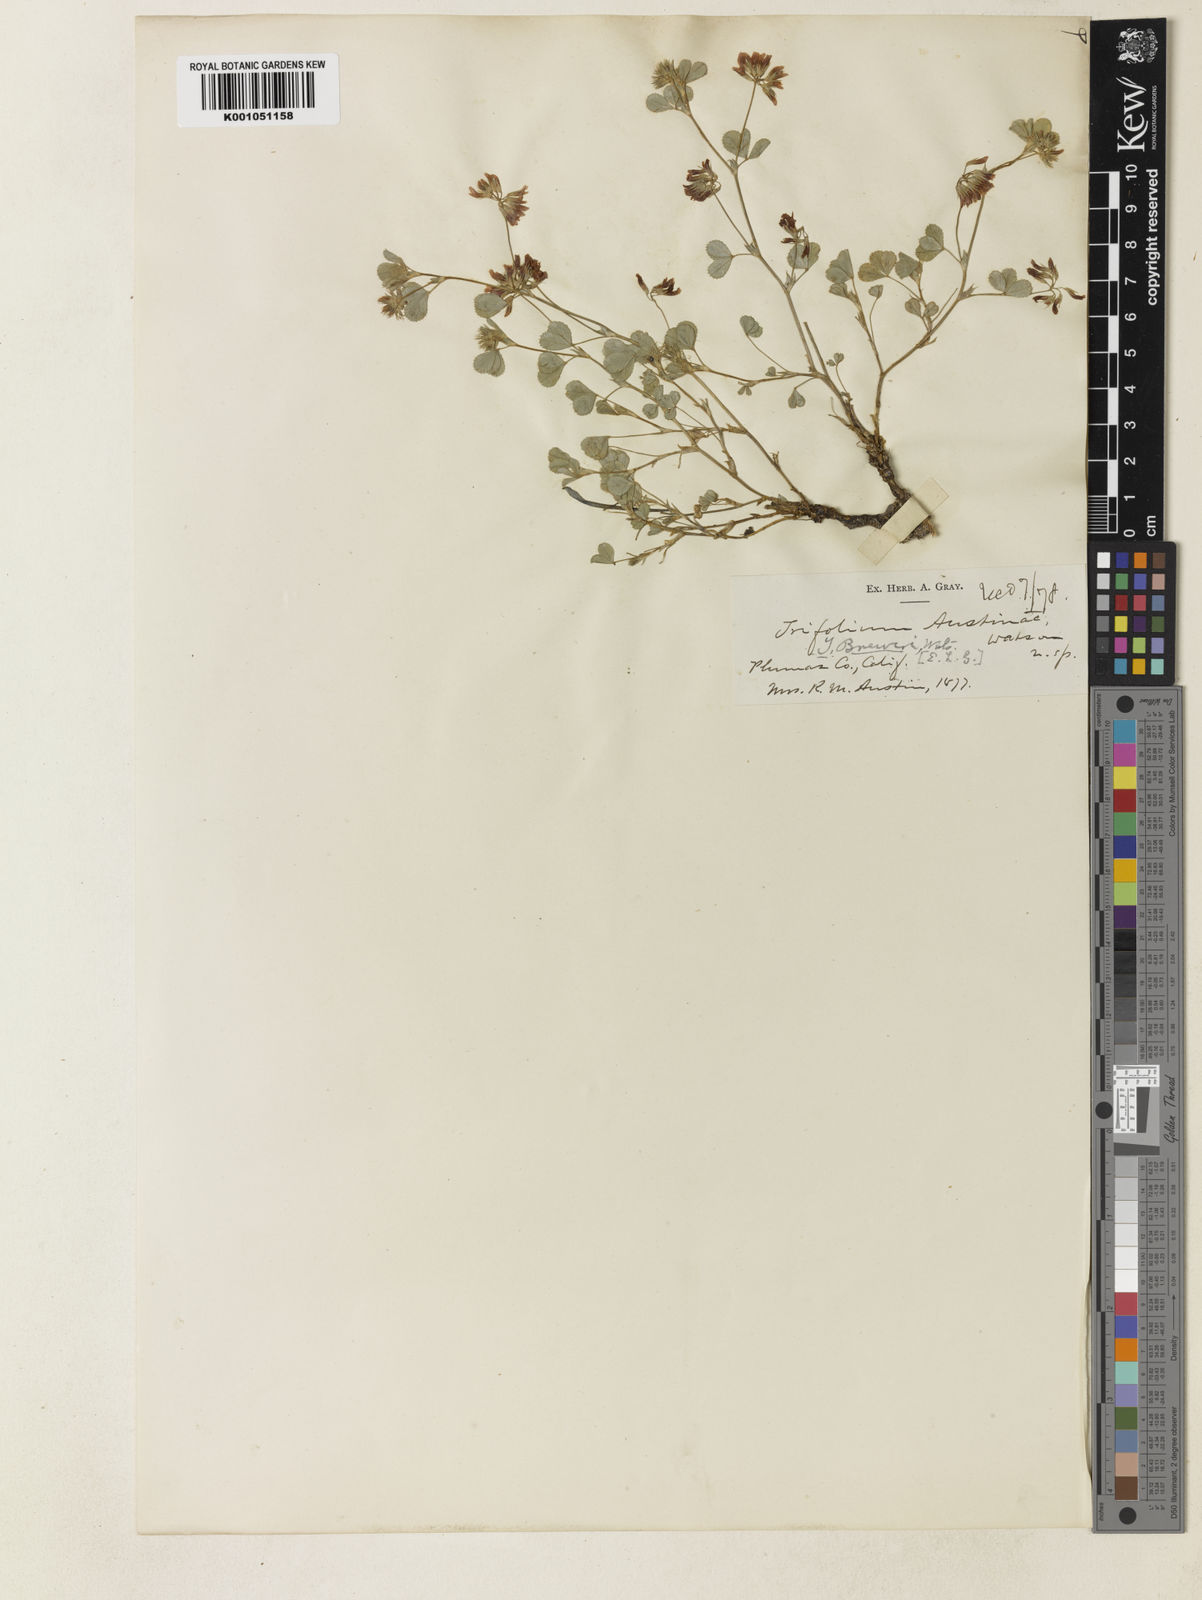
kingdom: Plantae
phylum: Tracheophyta
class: Magnoliopsida
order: Fabales
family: Fabaceae
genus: Trifolium
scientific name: Trifolium breweri
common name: Forest clover
